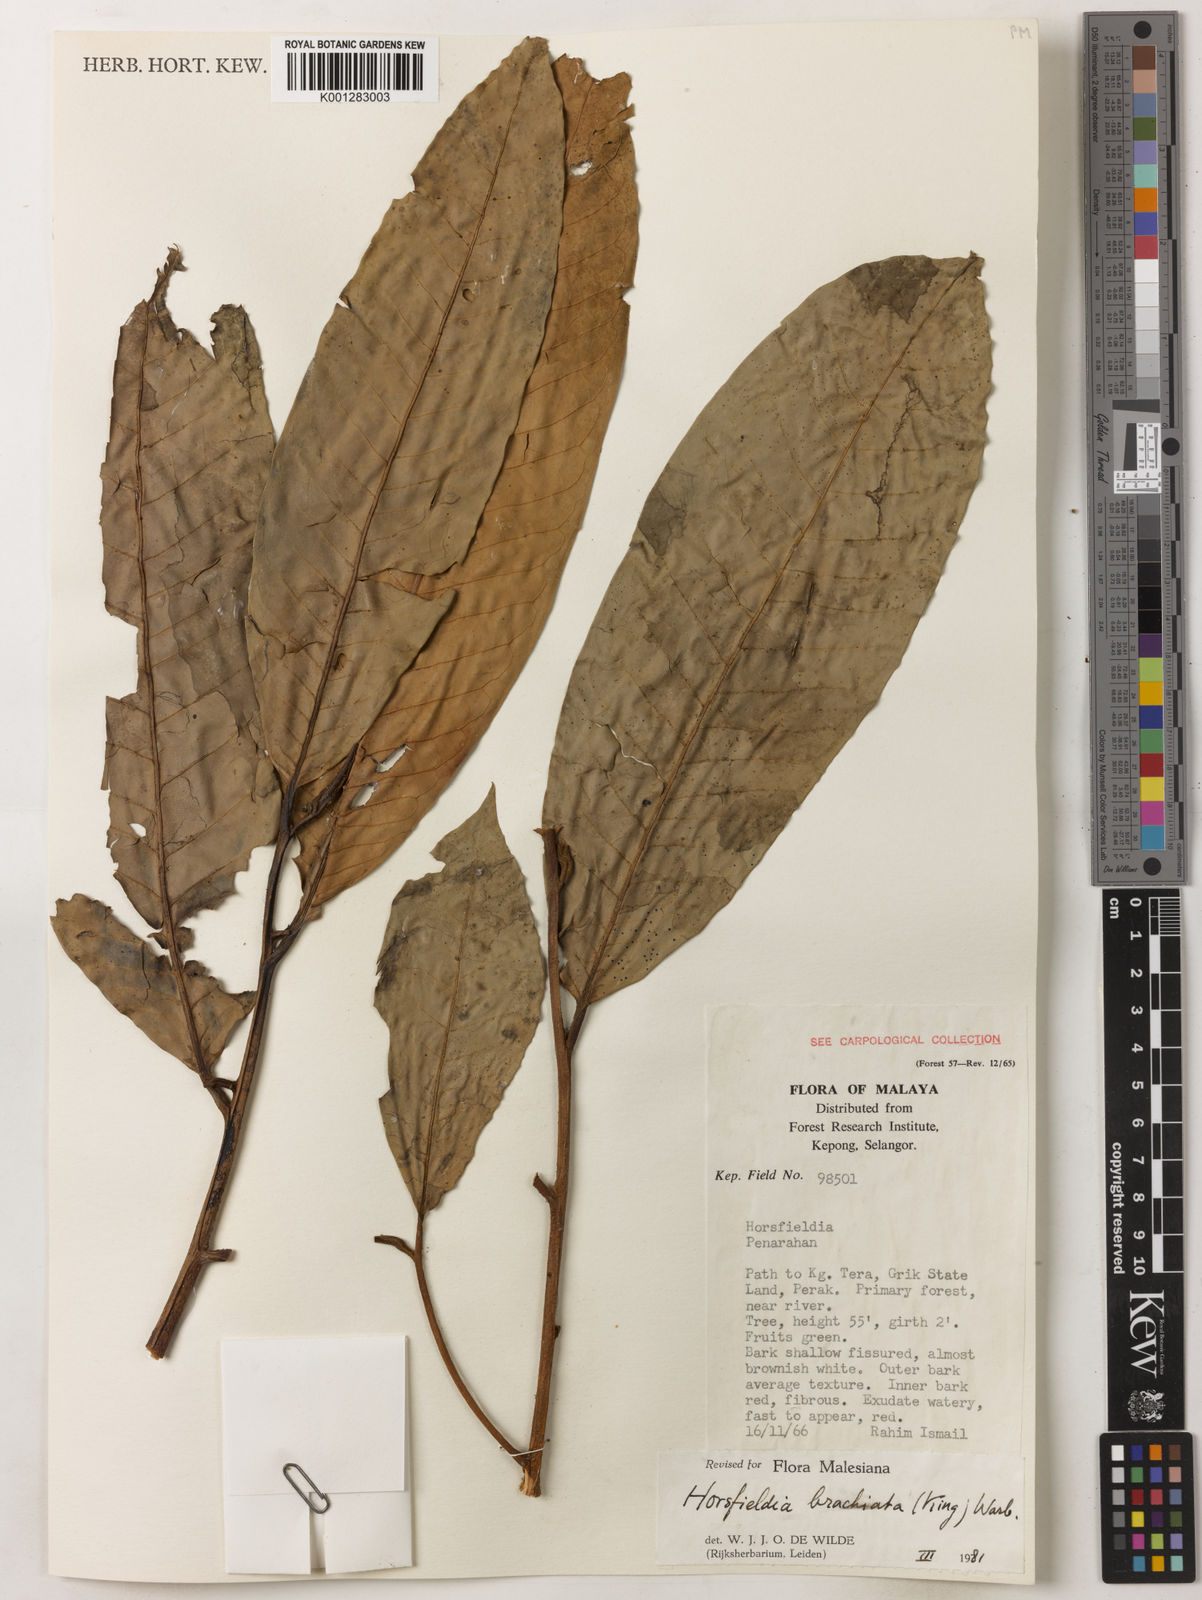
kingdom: Plantae
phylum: Tracheophyta
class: Magnoliopsida
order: Magnoliales
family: Myristicaceae
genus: Horsfieldia
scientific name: Horsfieldia brachiata
